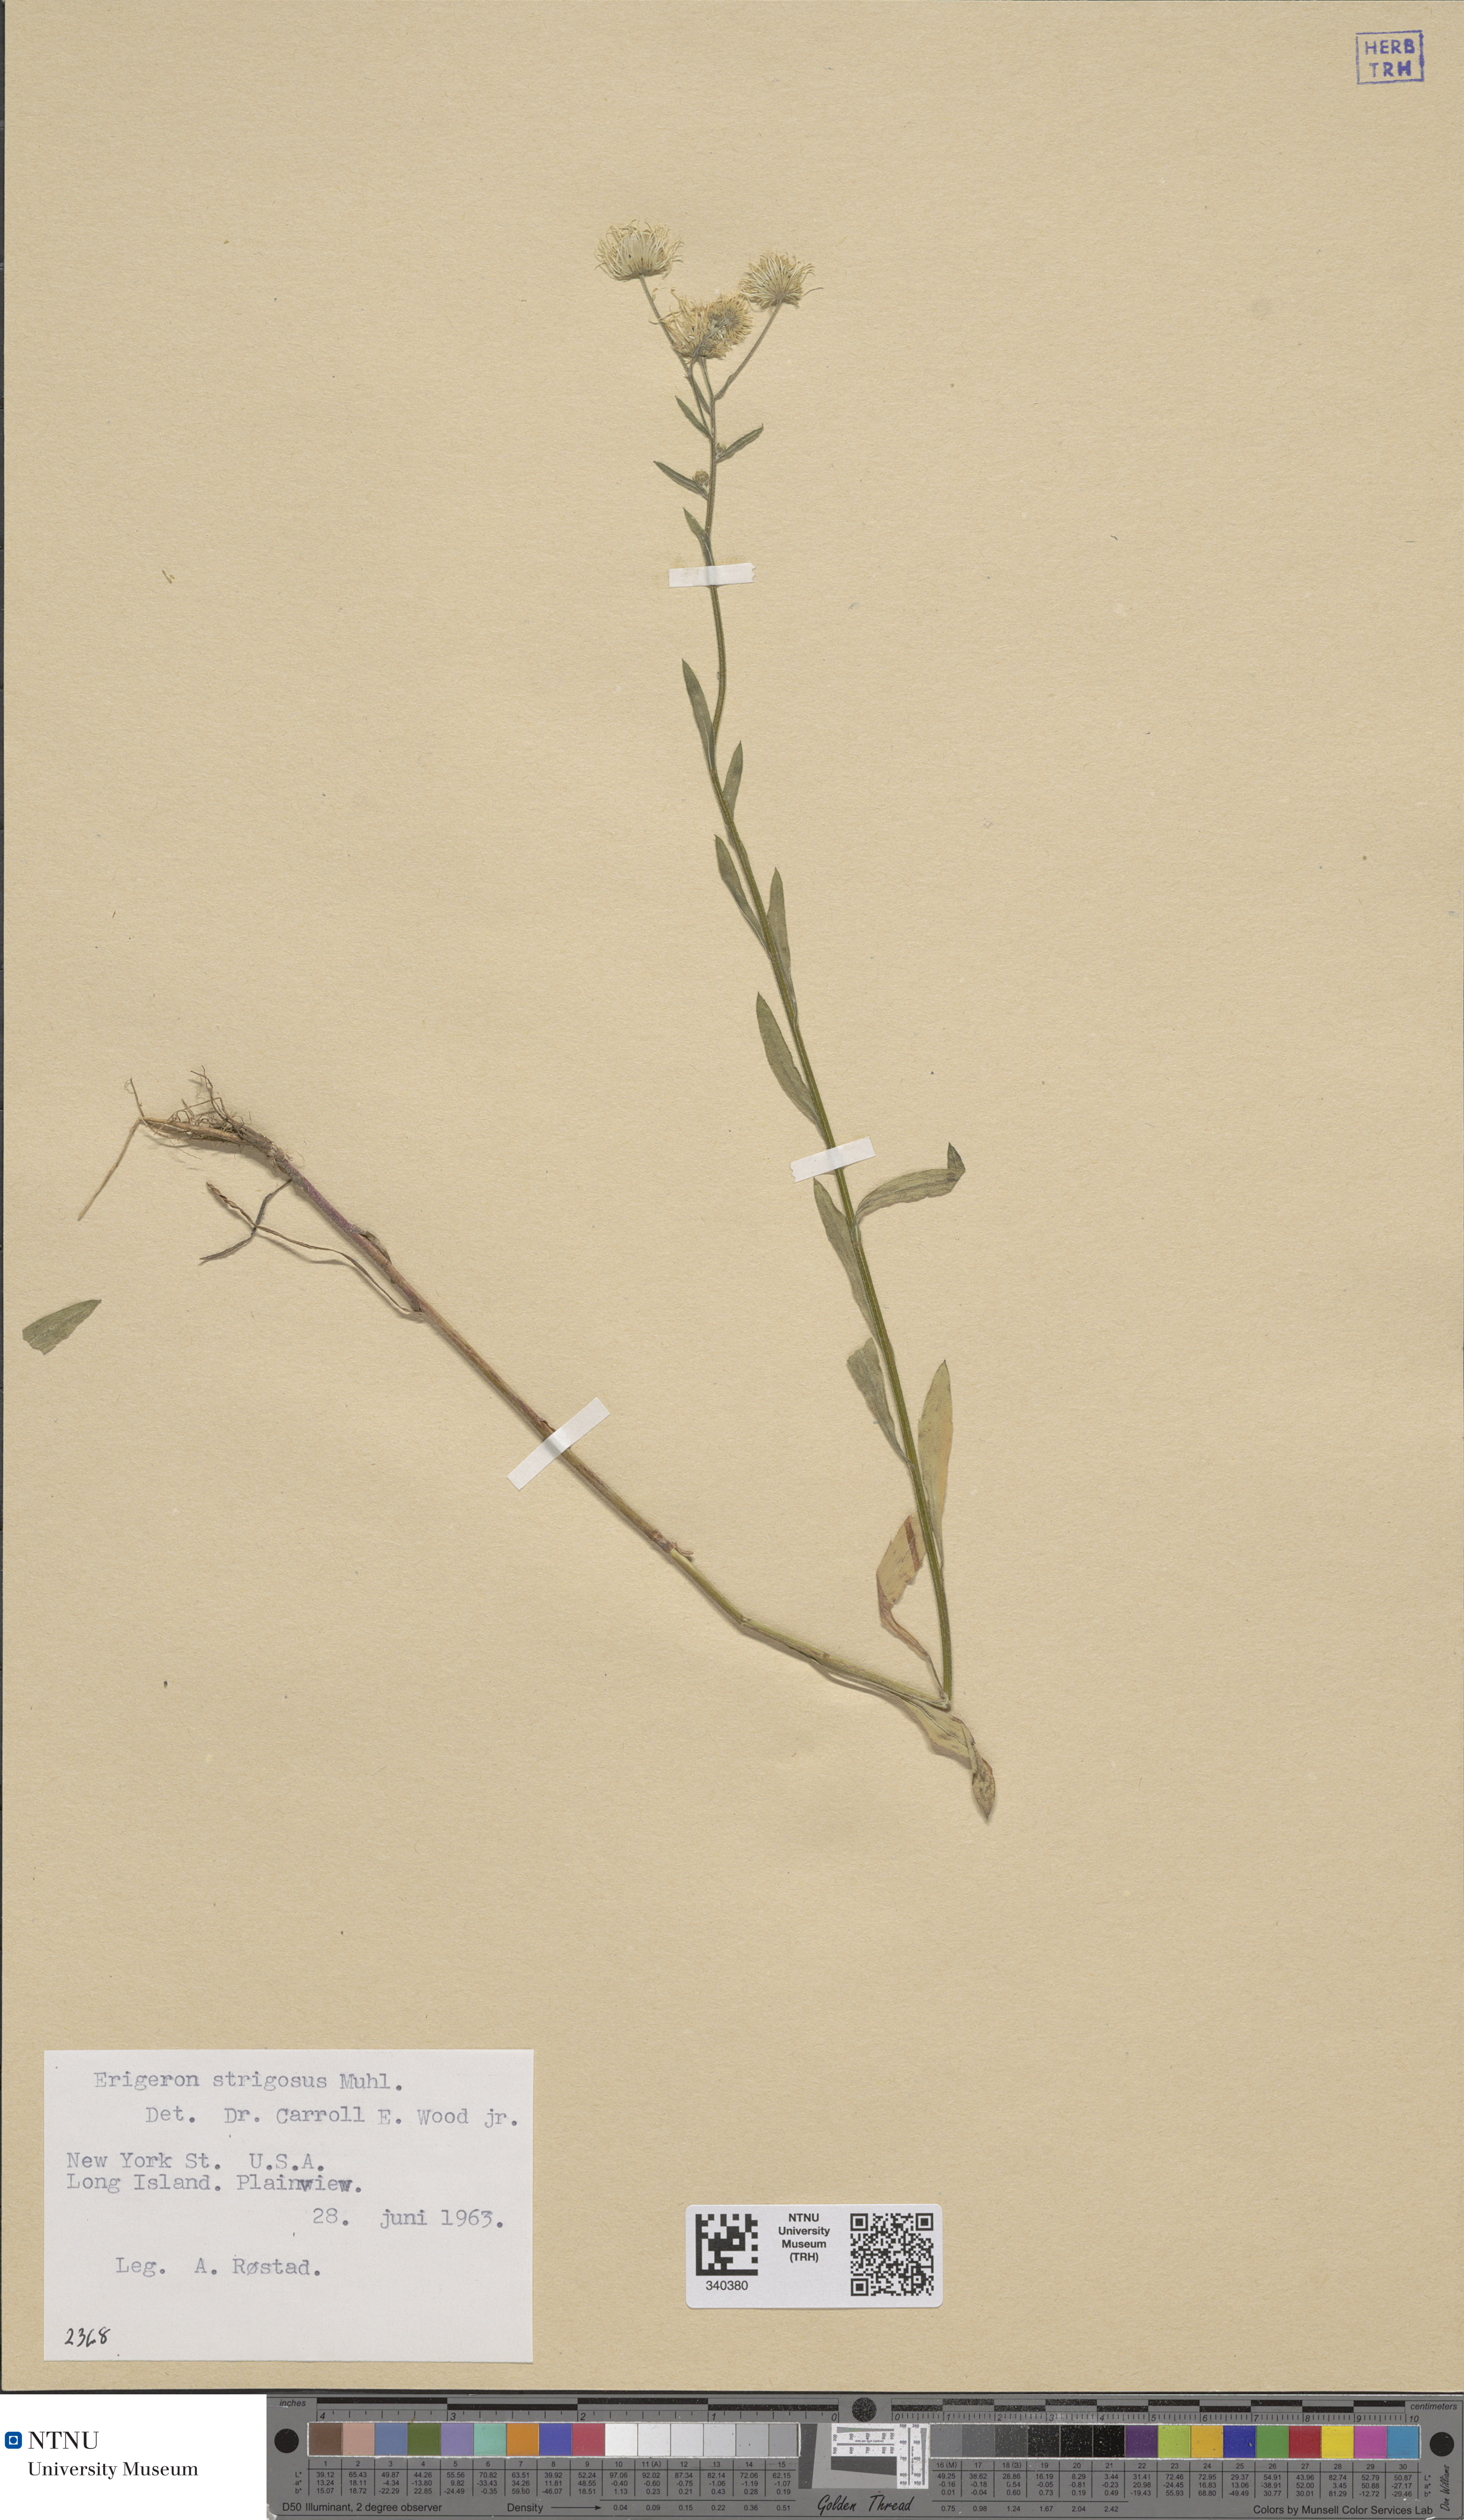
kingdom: Plantae
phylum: Tracheophyta
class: Magnoliopsida
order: Asterales
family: Asteraceae
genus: Erigeron
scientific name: Erigeron strigosus
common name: Common eastern fleabane
